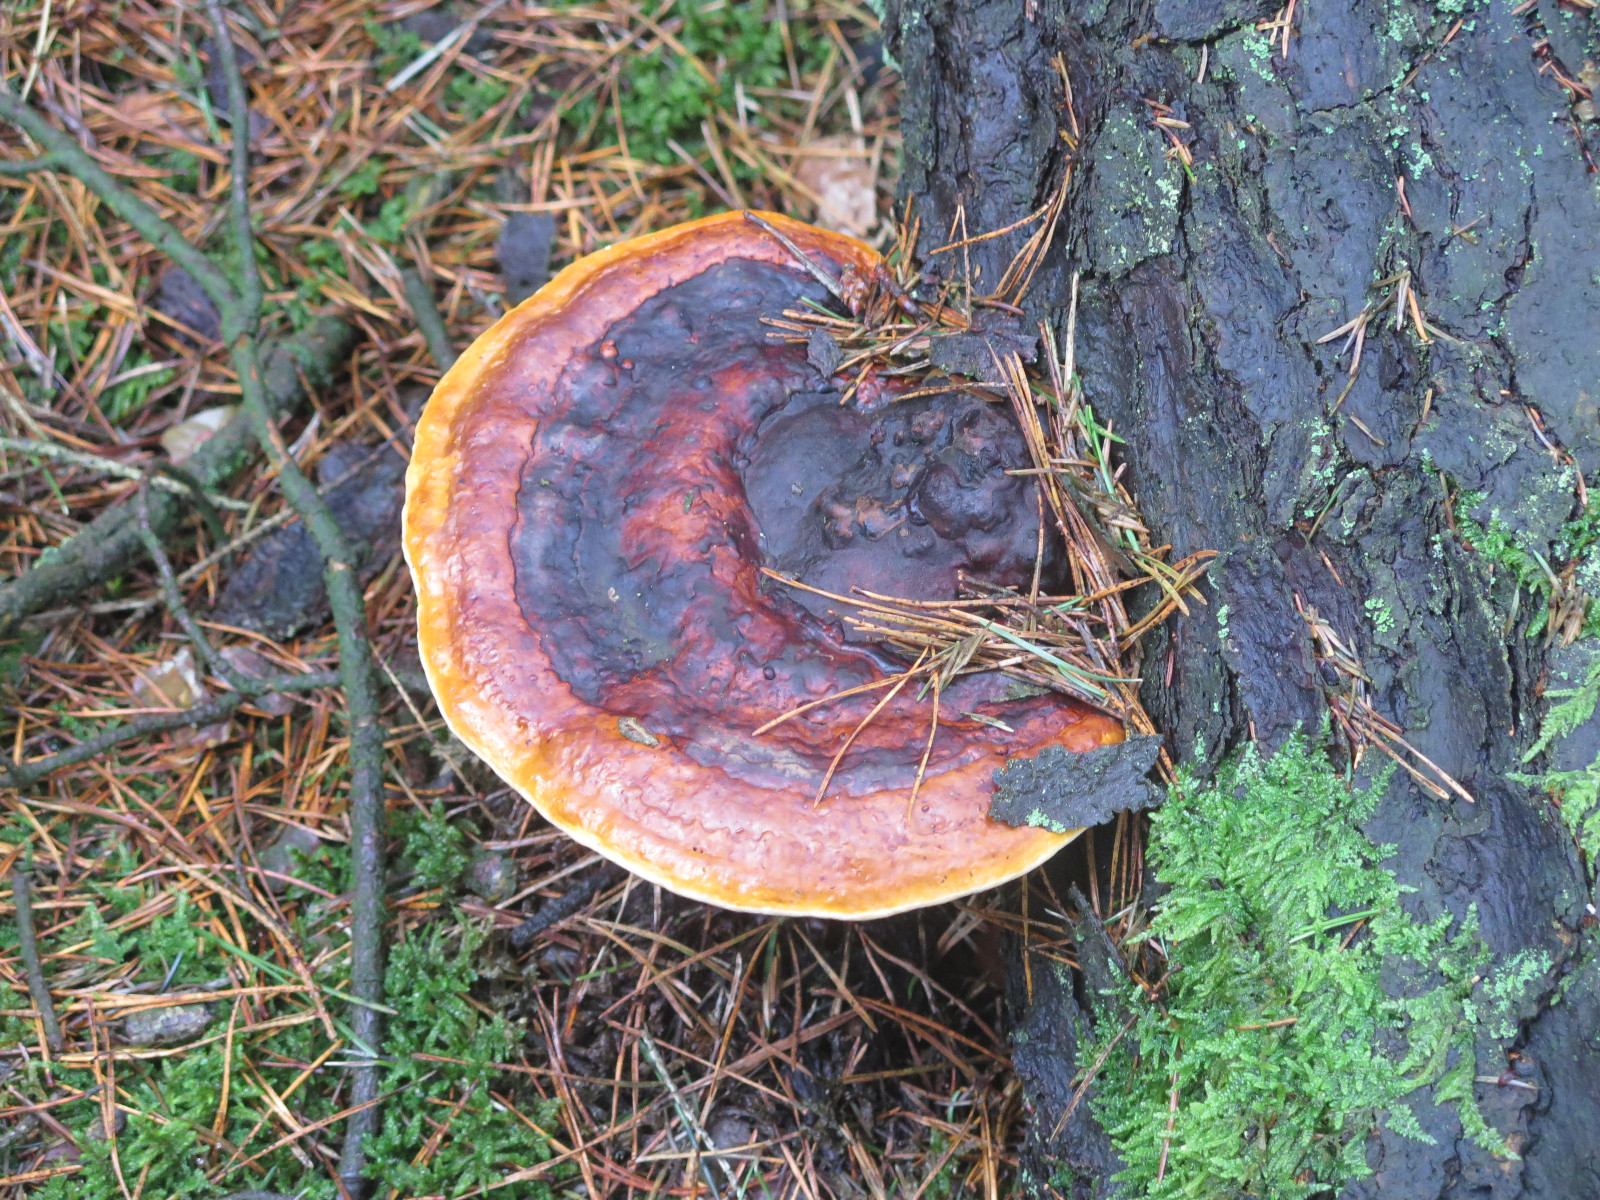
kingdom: Fungi
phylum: Basidiomycota
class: Agaricomycetes
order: Polyporales
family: Fomitopsidaceae
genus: Fomitopsis
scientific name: Fomitopsis pinicola
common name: randbæltet hovporesvamp
